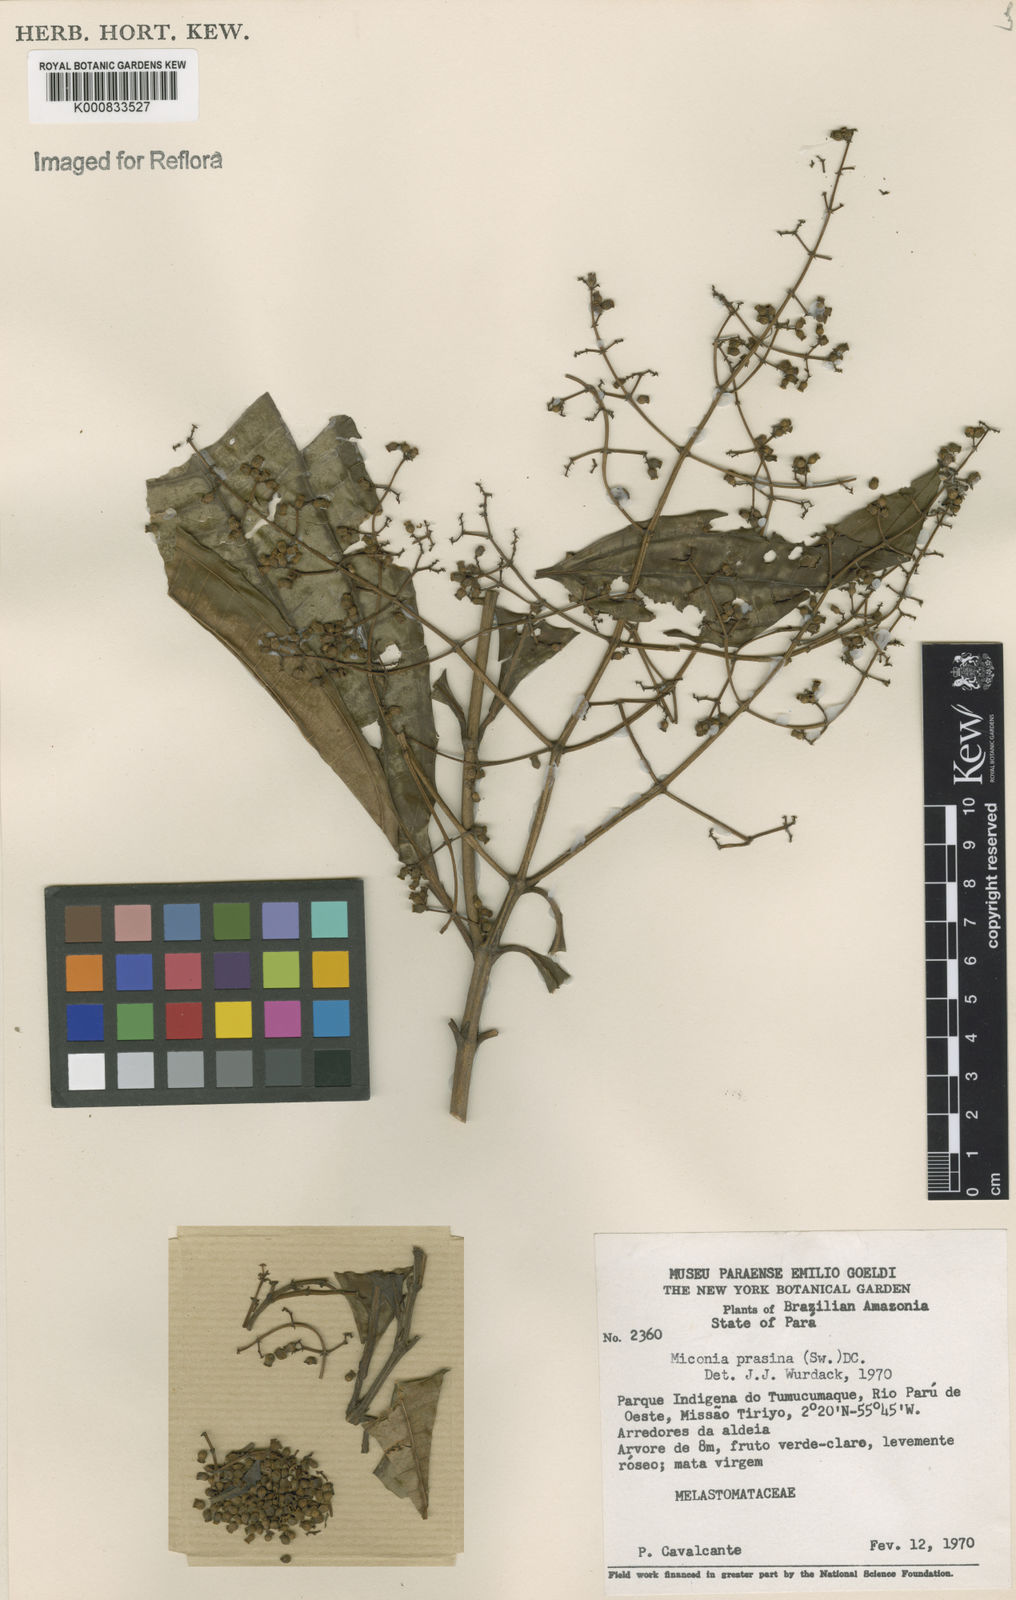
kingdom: Plantae
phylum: Tracheophyta
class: Magnoliopsida
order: Myrtales
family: Melastomataceae
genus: Miconia
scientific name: Miconia prasina
